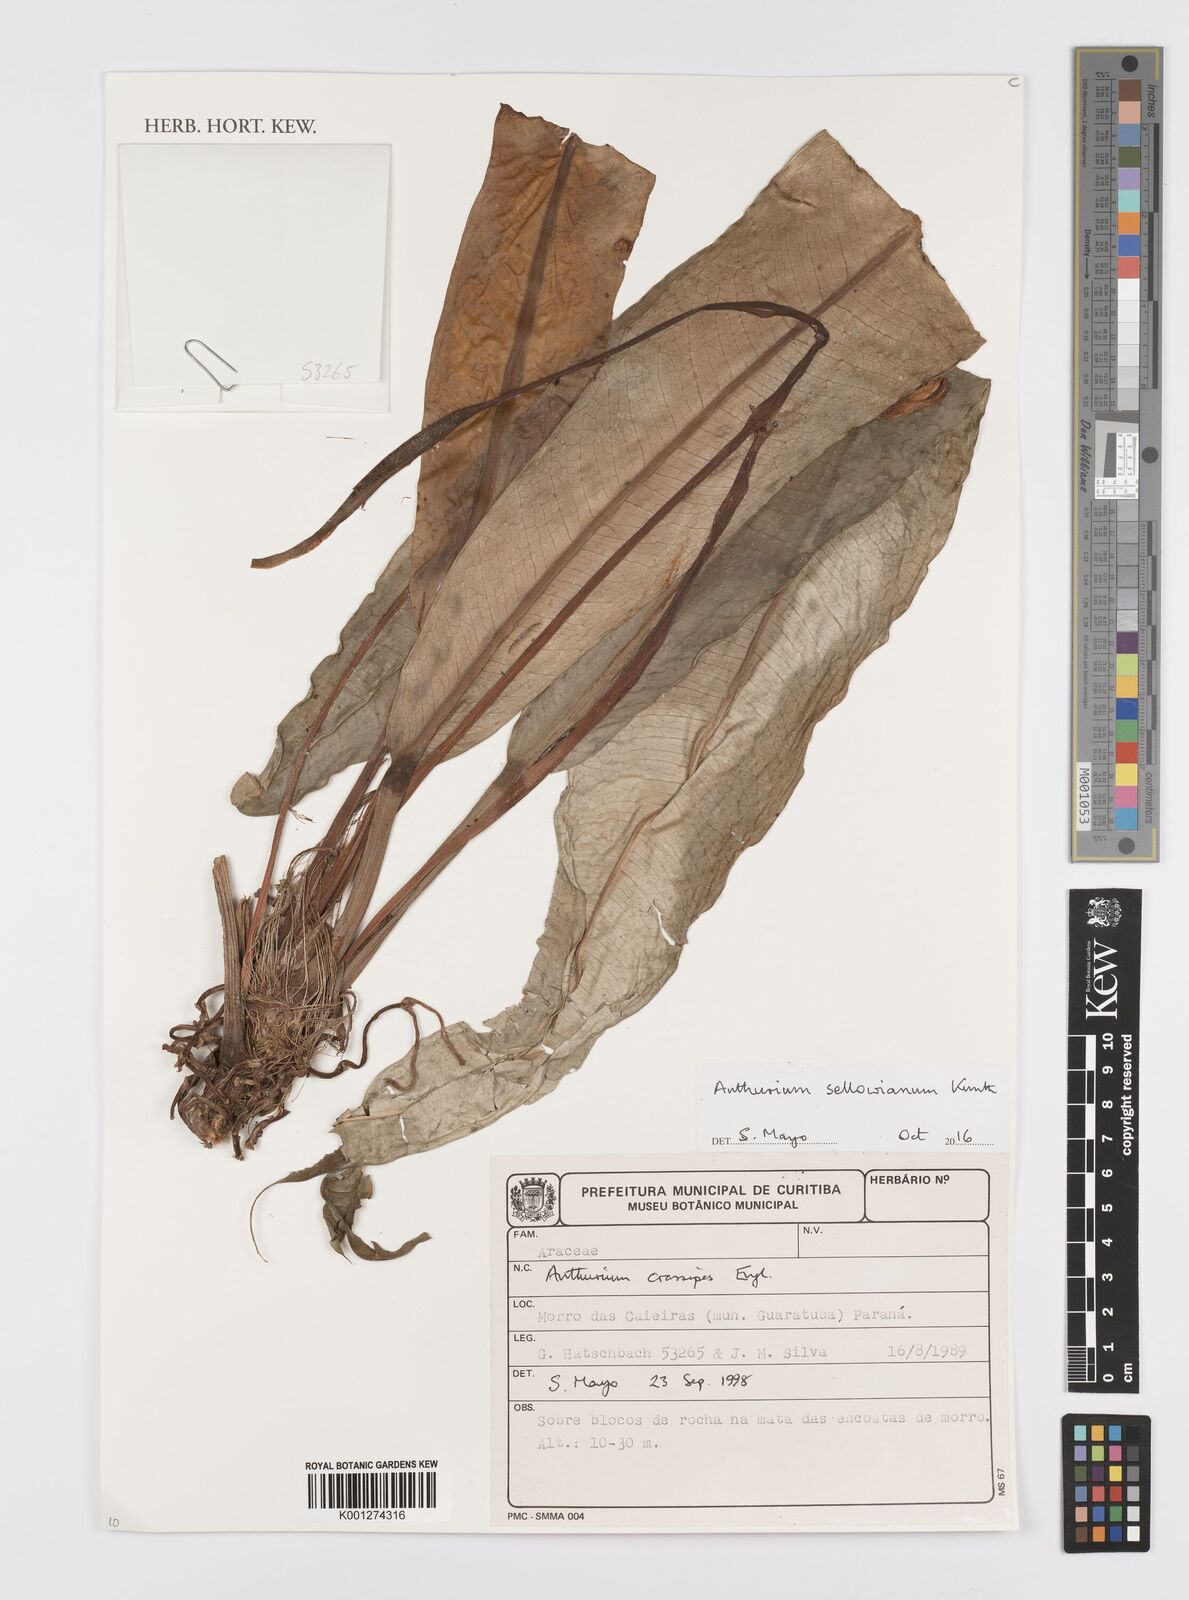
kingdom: Plantae
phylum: Tracheophyta
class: Liliopsida
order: Alismatales
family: Araceae
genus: Anthurium
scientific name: Anthurium sellowianum
